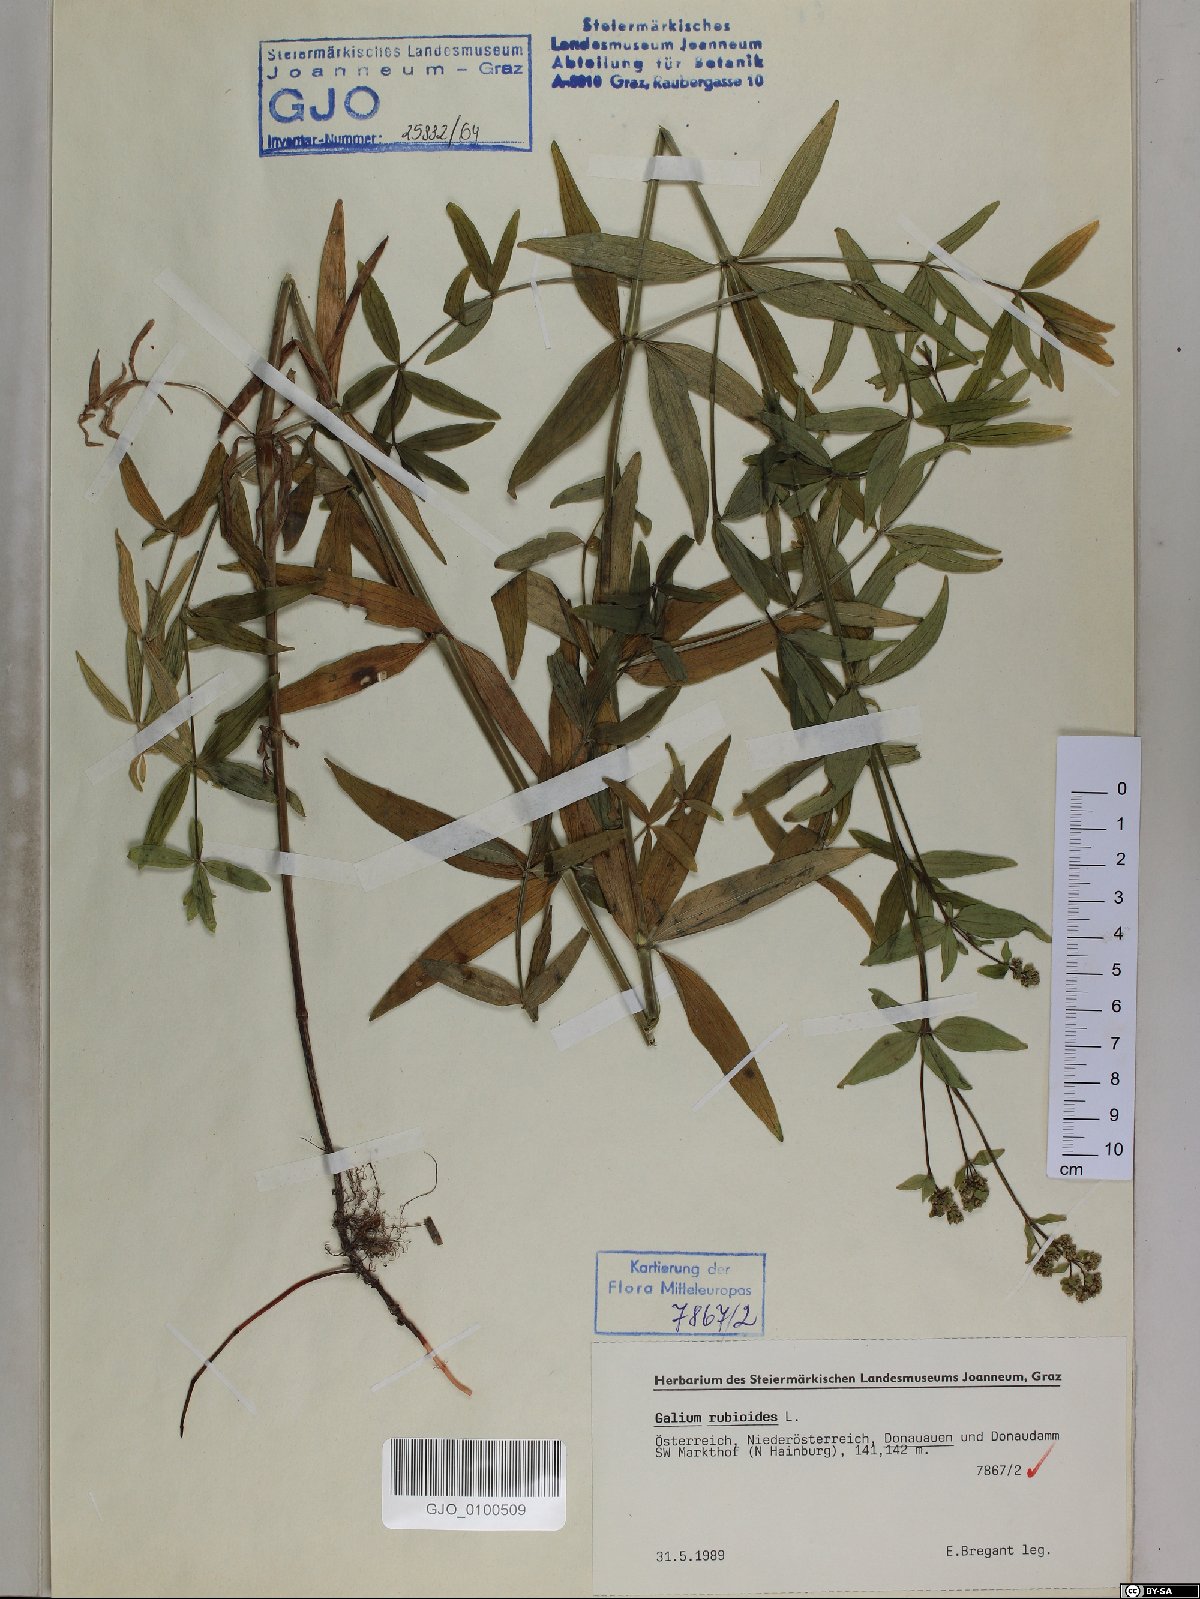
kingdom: Plantae
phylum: Tracheophyta
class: Magnoliopsida
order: Gentianales
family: Rubiaceae
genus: Galium
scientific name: Galium rubioides
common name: European bedstraw
